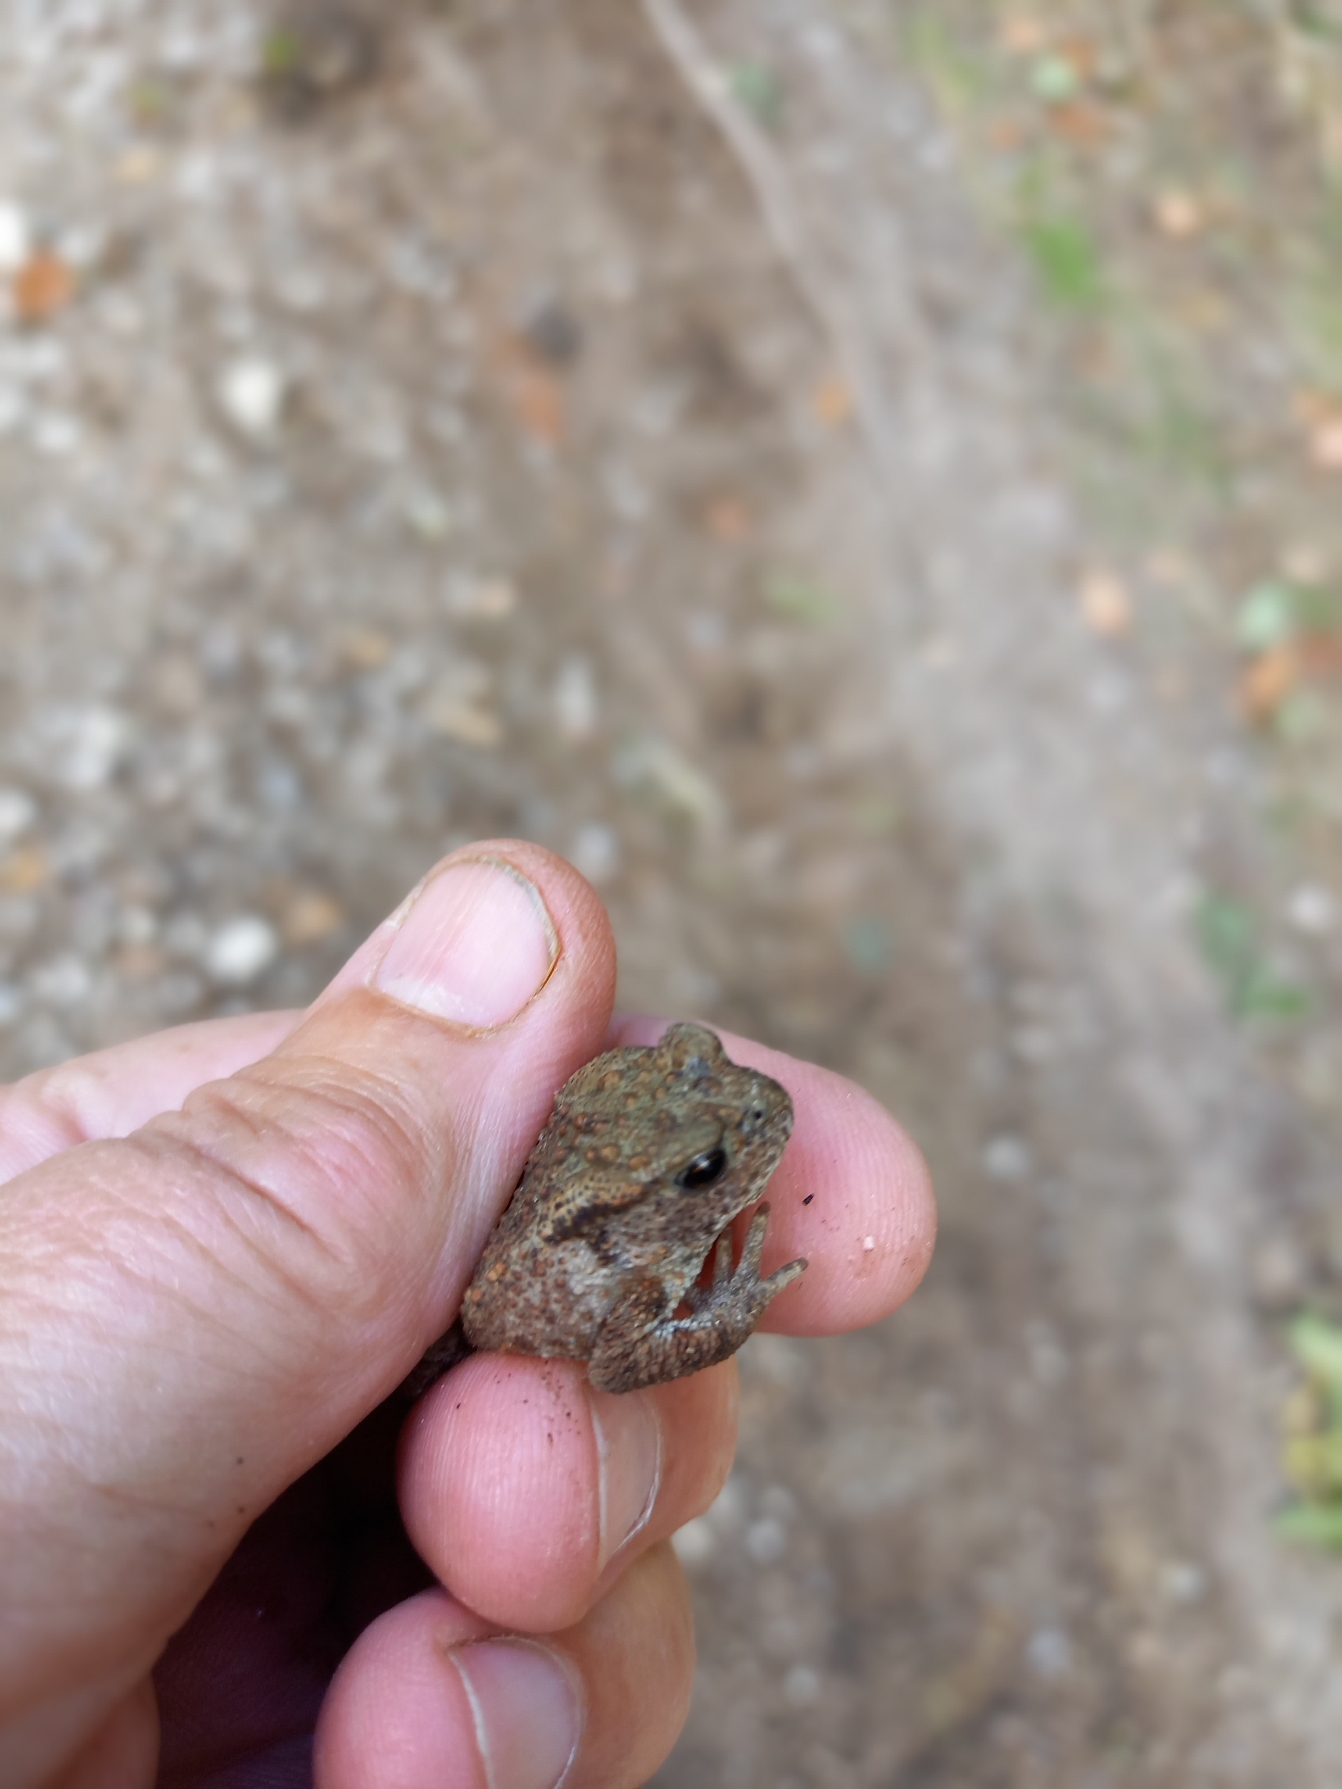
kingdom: Animalia
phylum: Chordata
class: Amphibia
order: Anura
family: Bufonidae
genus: Bufo
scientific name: Bufo bufo
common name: Skrubtudse
